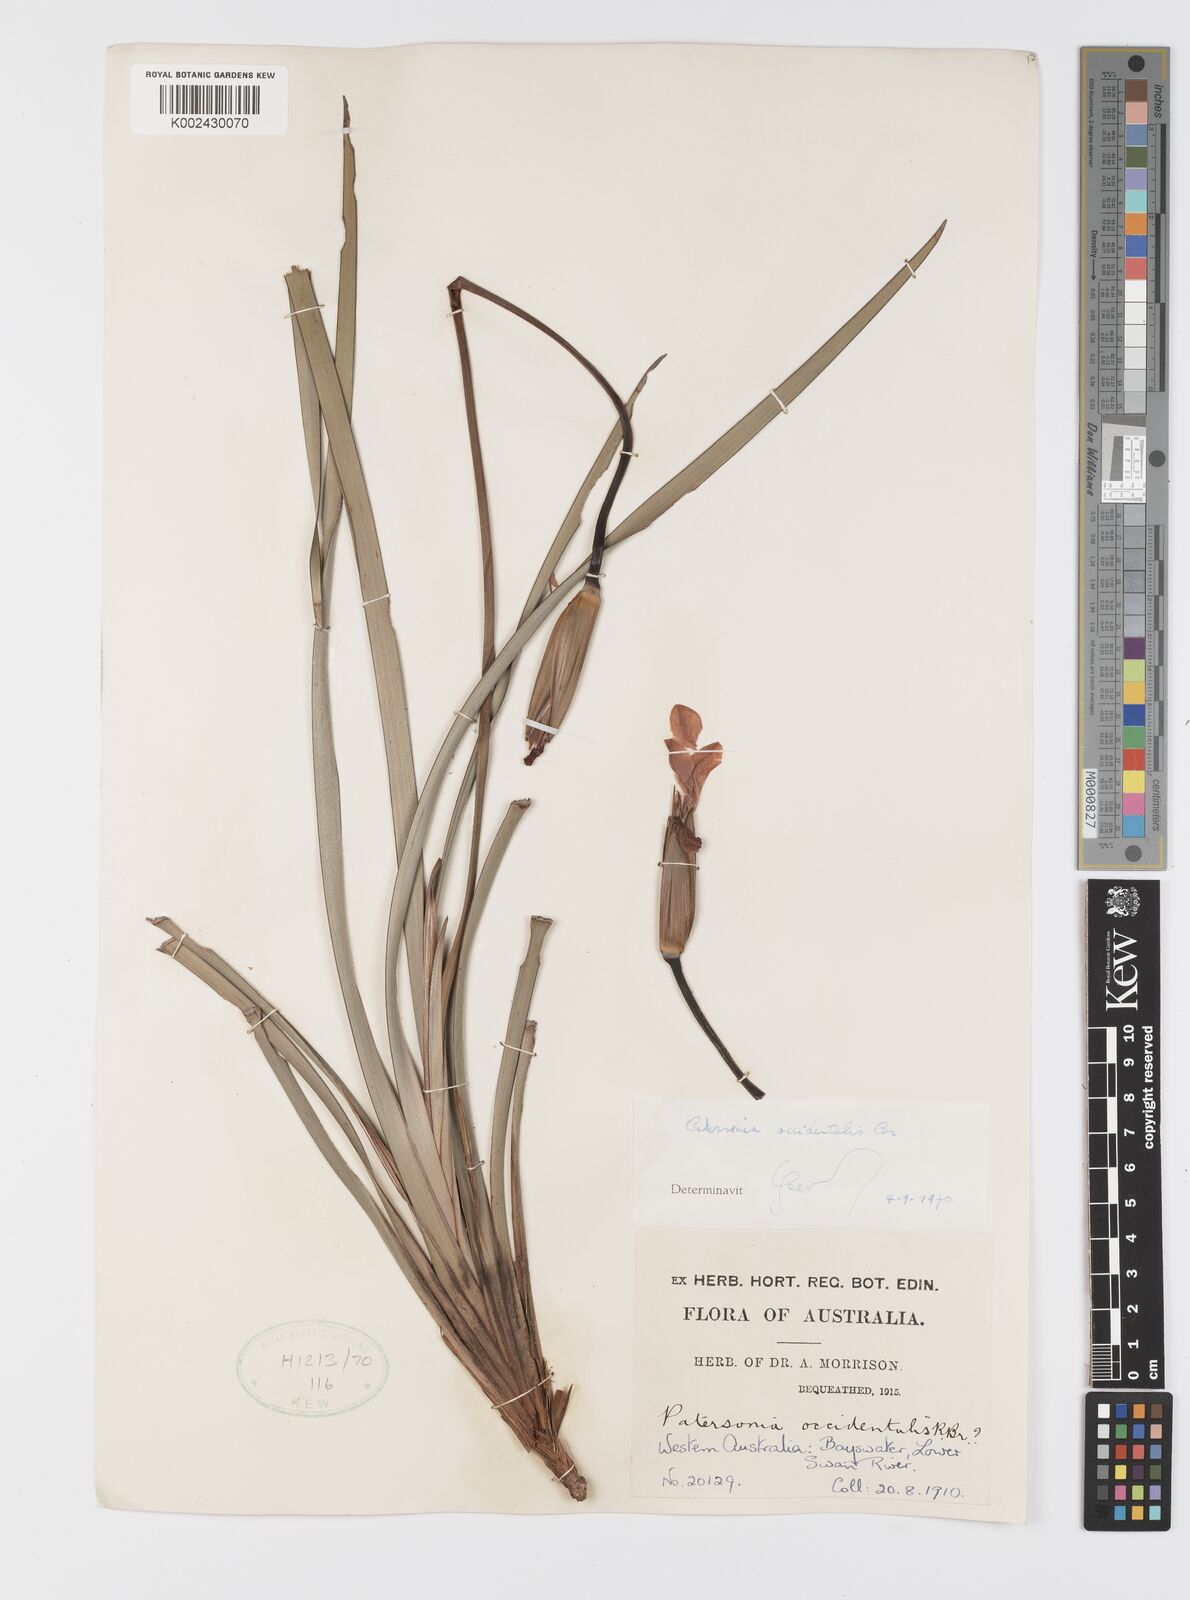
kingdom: Plantae
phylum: Tracheophyta
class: Liliopsida
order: Asparagales
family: Iridaceae
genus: Patersonia
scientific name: Patersonia occidentalis
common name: Long purple-flag
